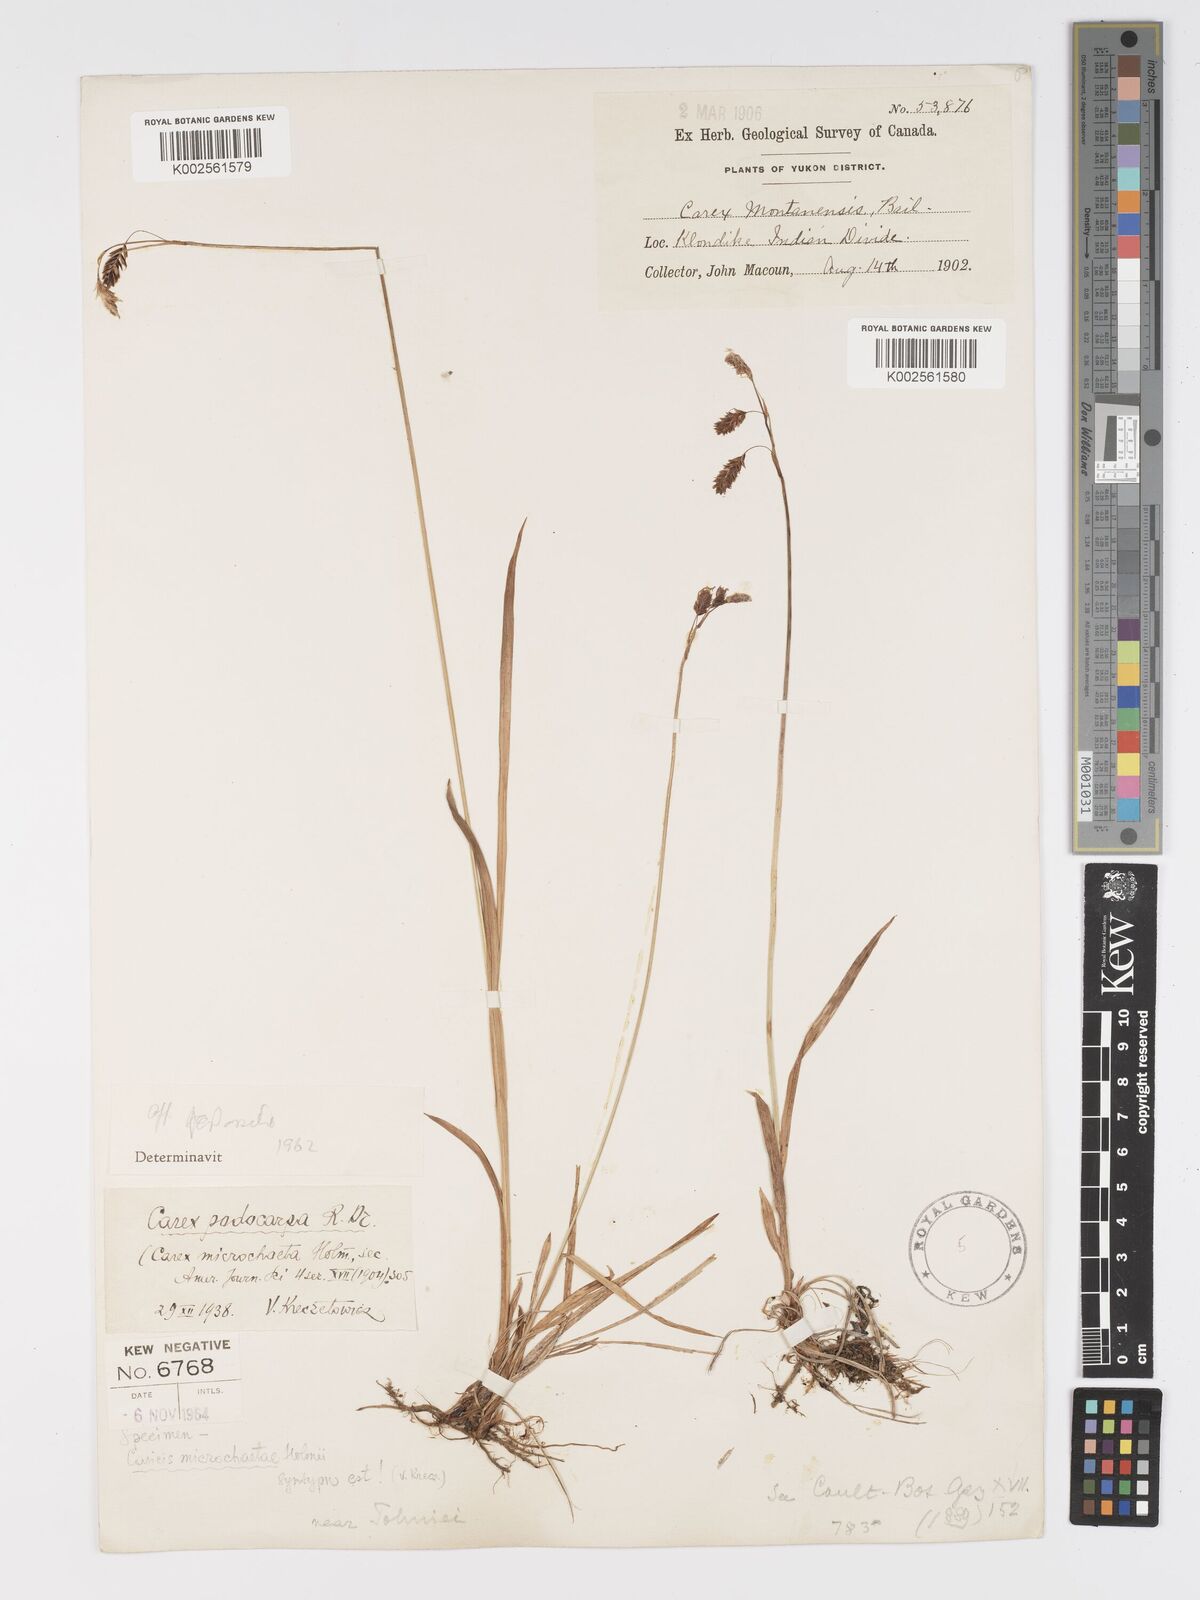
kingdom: Plantae
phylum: Tracheophyta
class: Liliopsida
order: Poales
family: Cyperaceae
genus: Carex
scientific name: Carex podocarpa
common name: Alpine sedge
